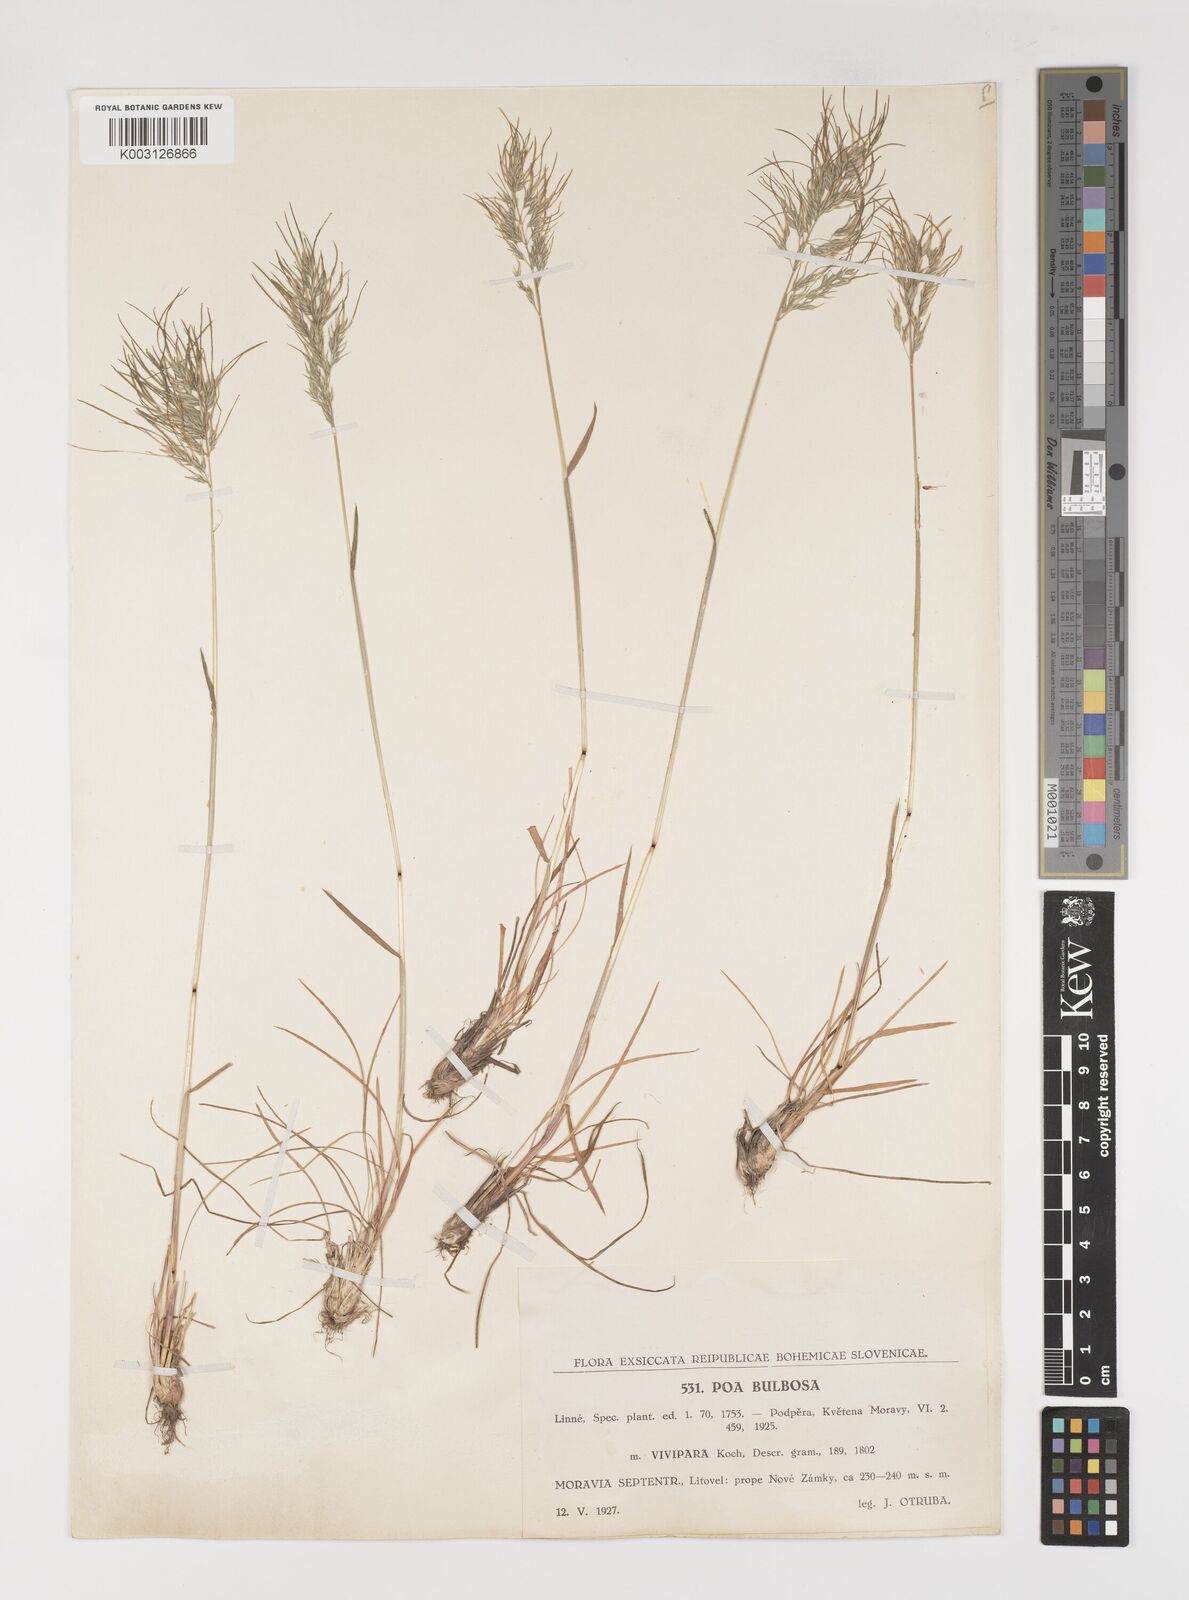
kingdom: Plantae
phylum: Tracheophyta
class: Liliopsida
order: Poales
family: Poaceae
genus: Poa
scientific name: Poa bulbosa
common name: Bulbous bluegrass
